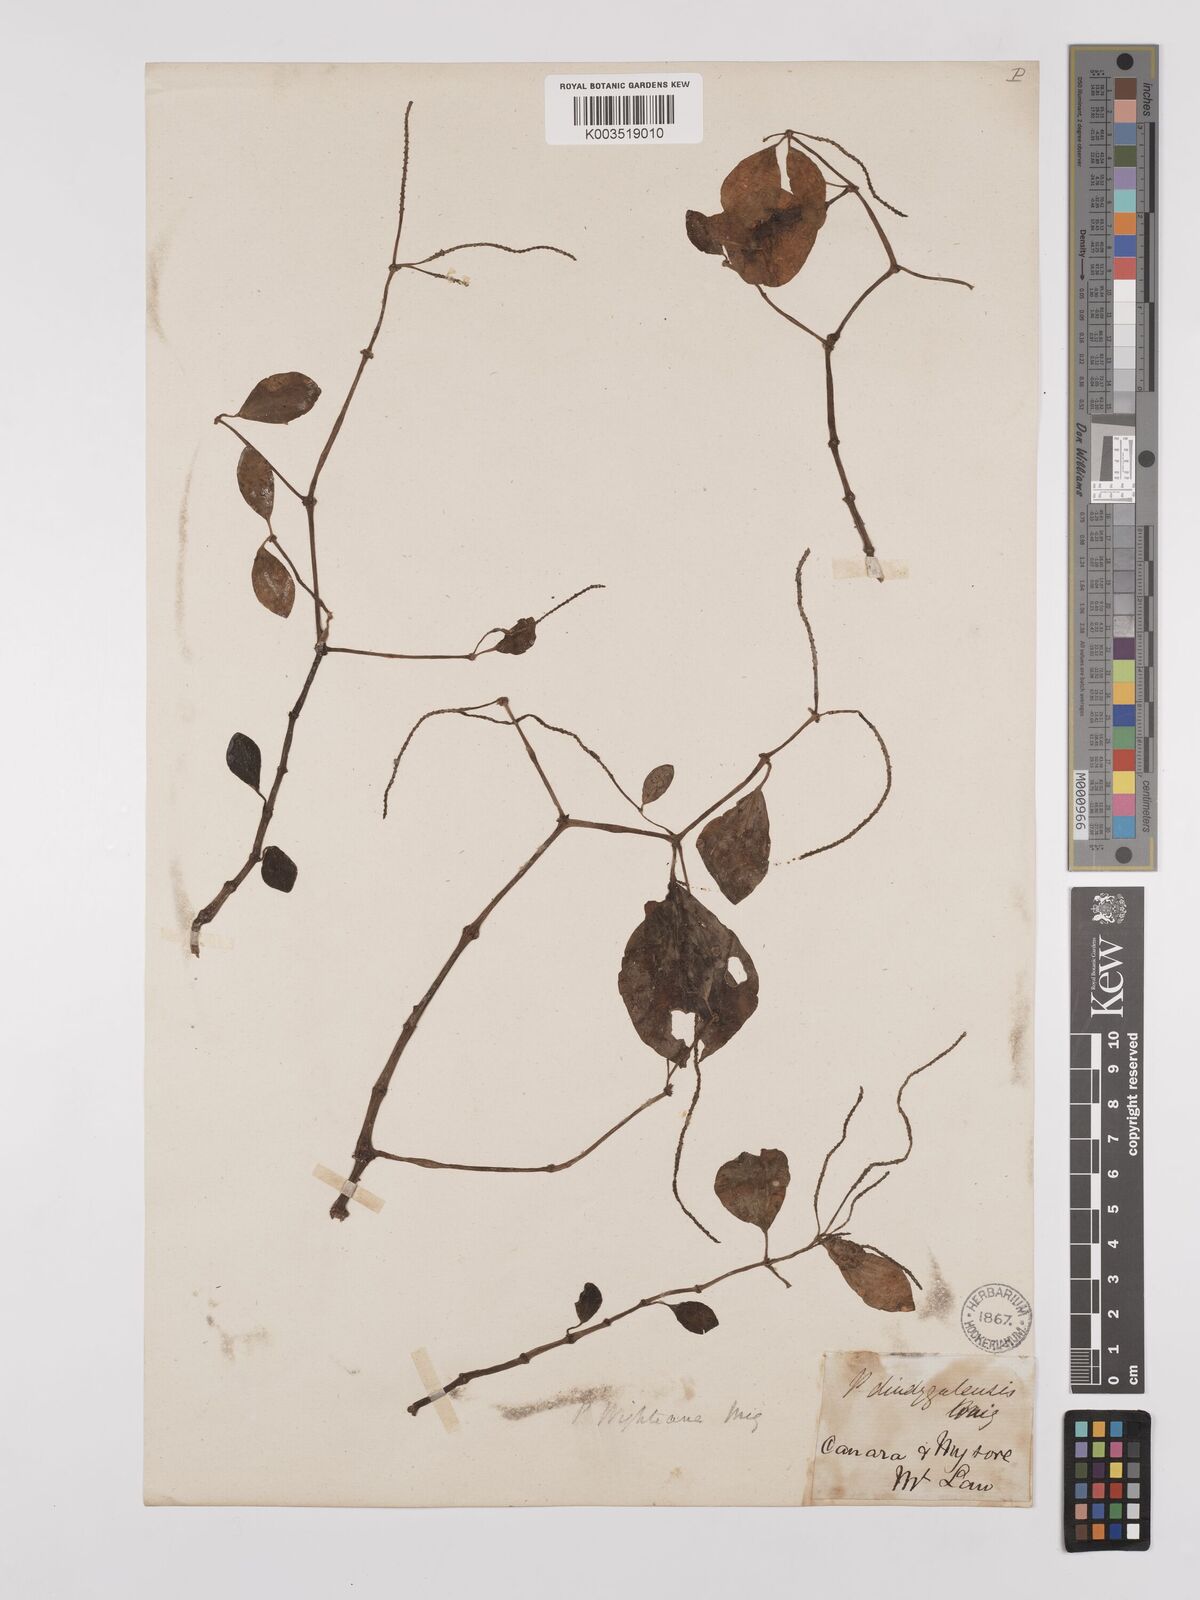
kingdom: Plantae
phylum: Tracheophyta
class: Magnoliopsida
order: Piperales
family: Piperaceae
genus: Peperomia
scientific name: Peperomia wightiana
